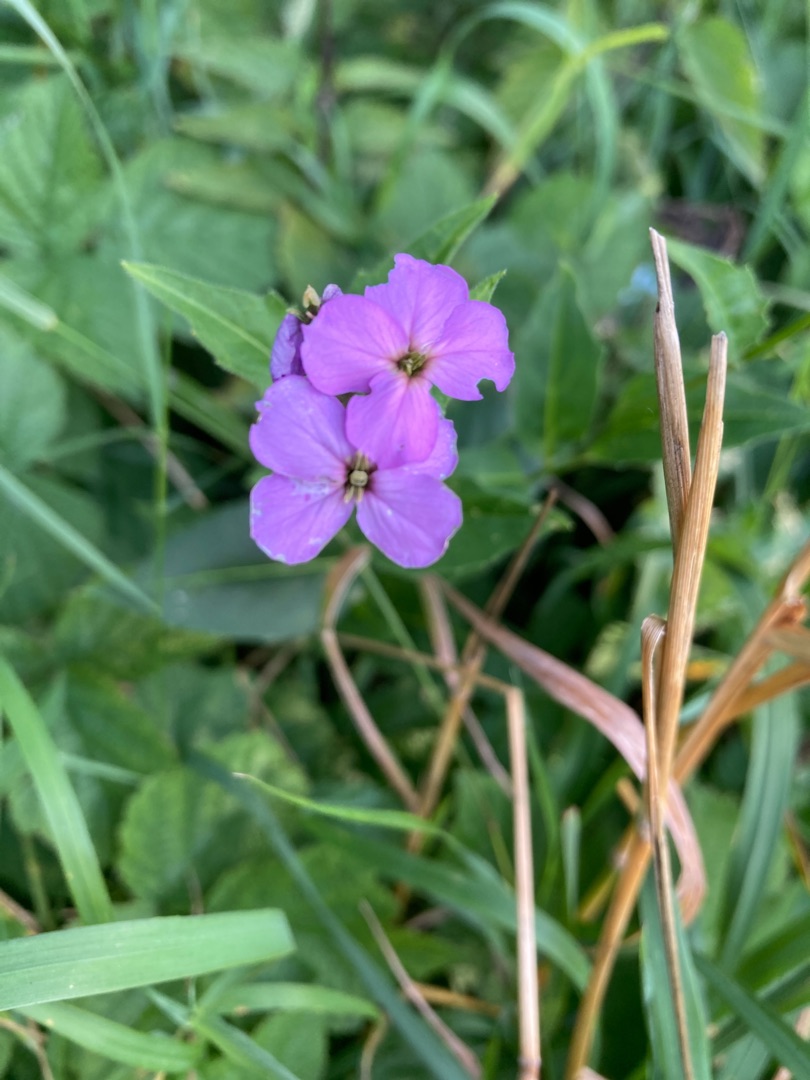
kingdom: Plantae
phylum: Tracheophyta
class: Magnoliopsida
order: Brassicales
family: Brassicaceae
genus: Hesperis
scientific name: Hesperis matronalis
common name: Aftenstjerne
